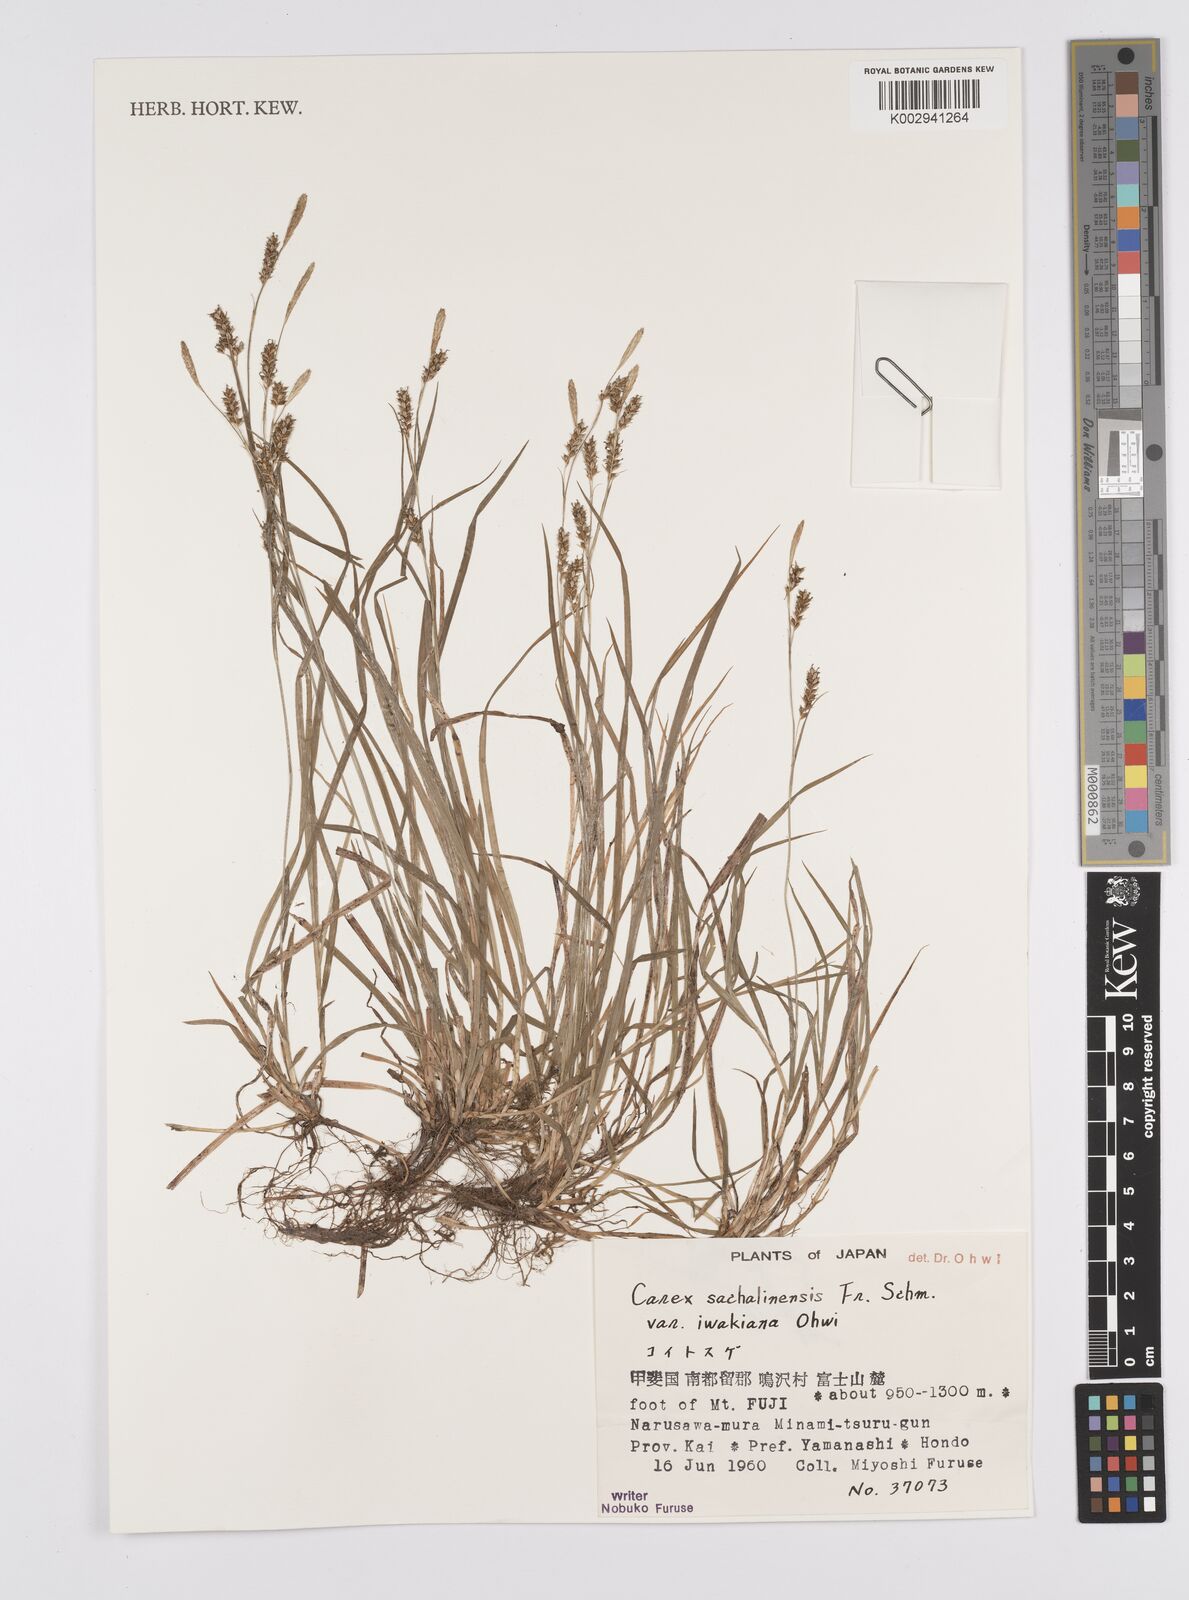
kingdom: Plantae
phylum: Tracheophyta
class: Liliopsida
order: Poales
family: Cyperaceae
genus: Carex
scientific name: Carex pisiformis
